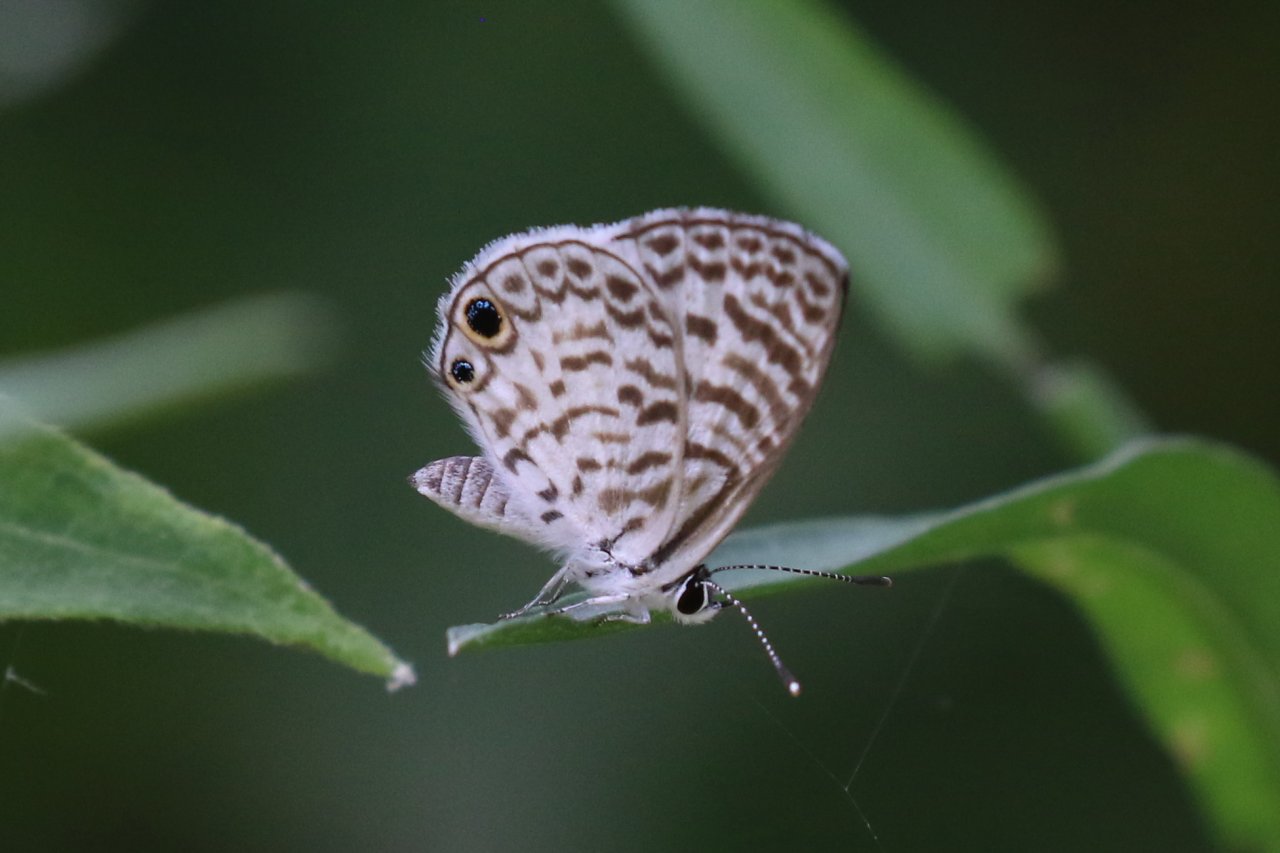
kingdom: Animalia
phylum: Arthropoda
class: Insecta
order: Lepidoptera
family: Lycaenidae
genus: Leptotes
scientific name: Leptotes cassius
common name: Cassius Blue
